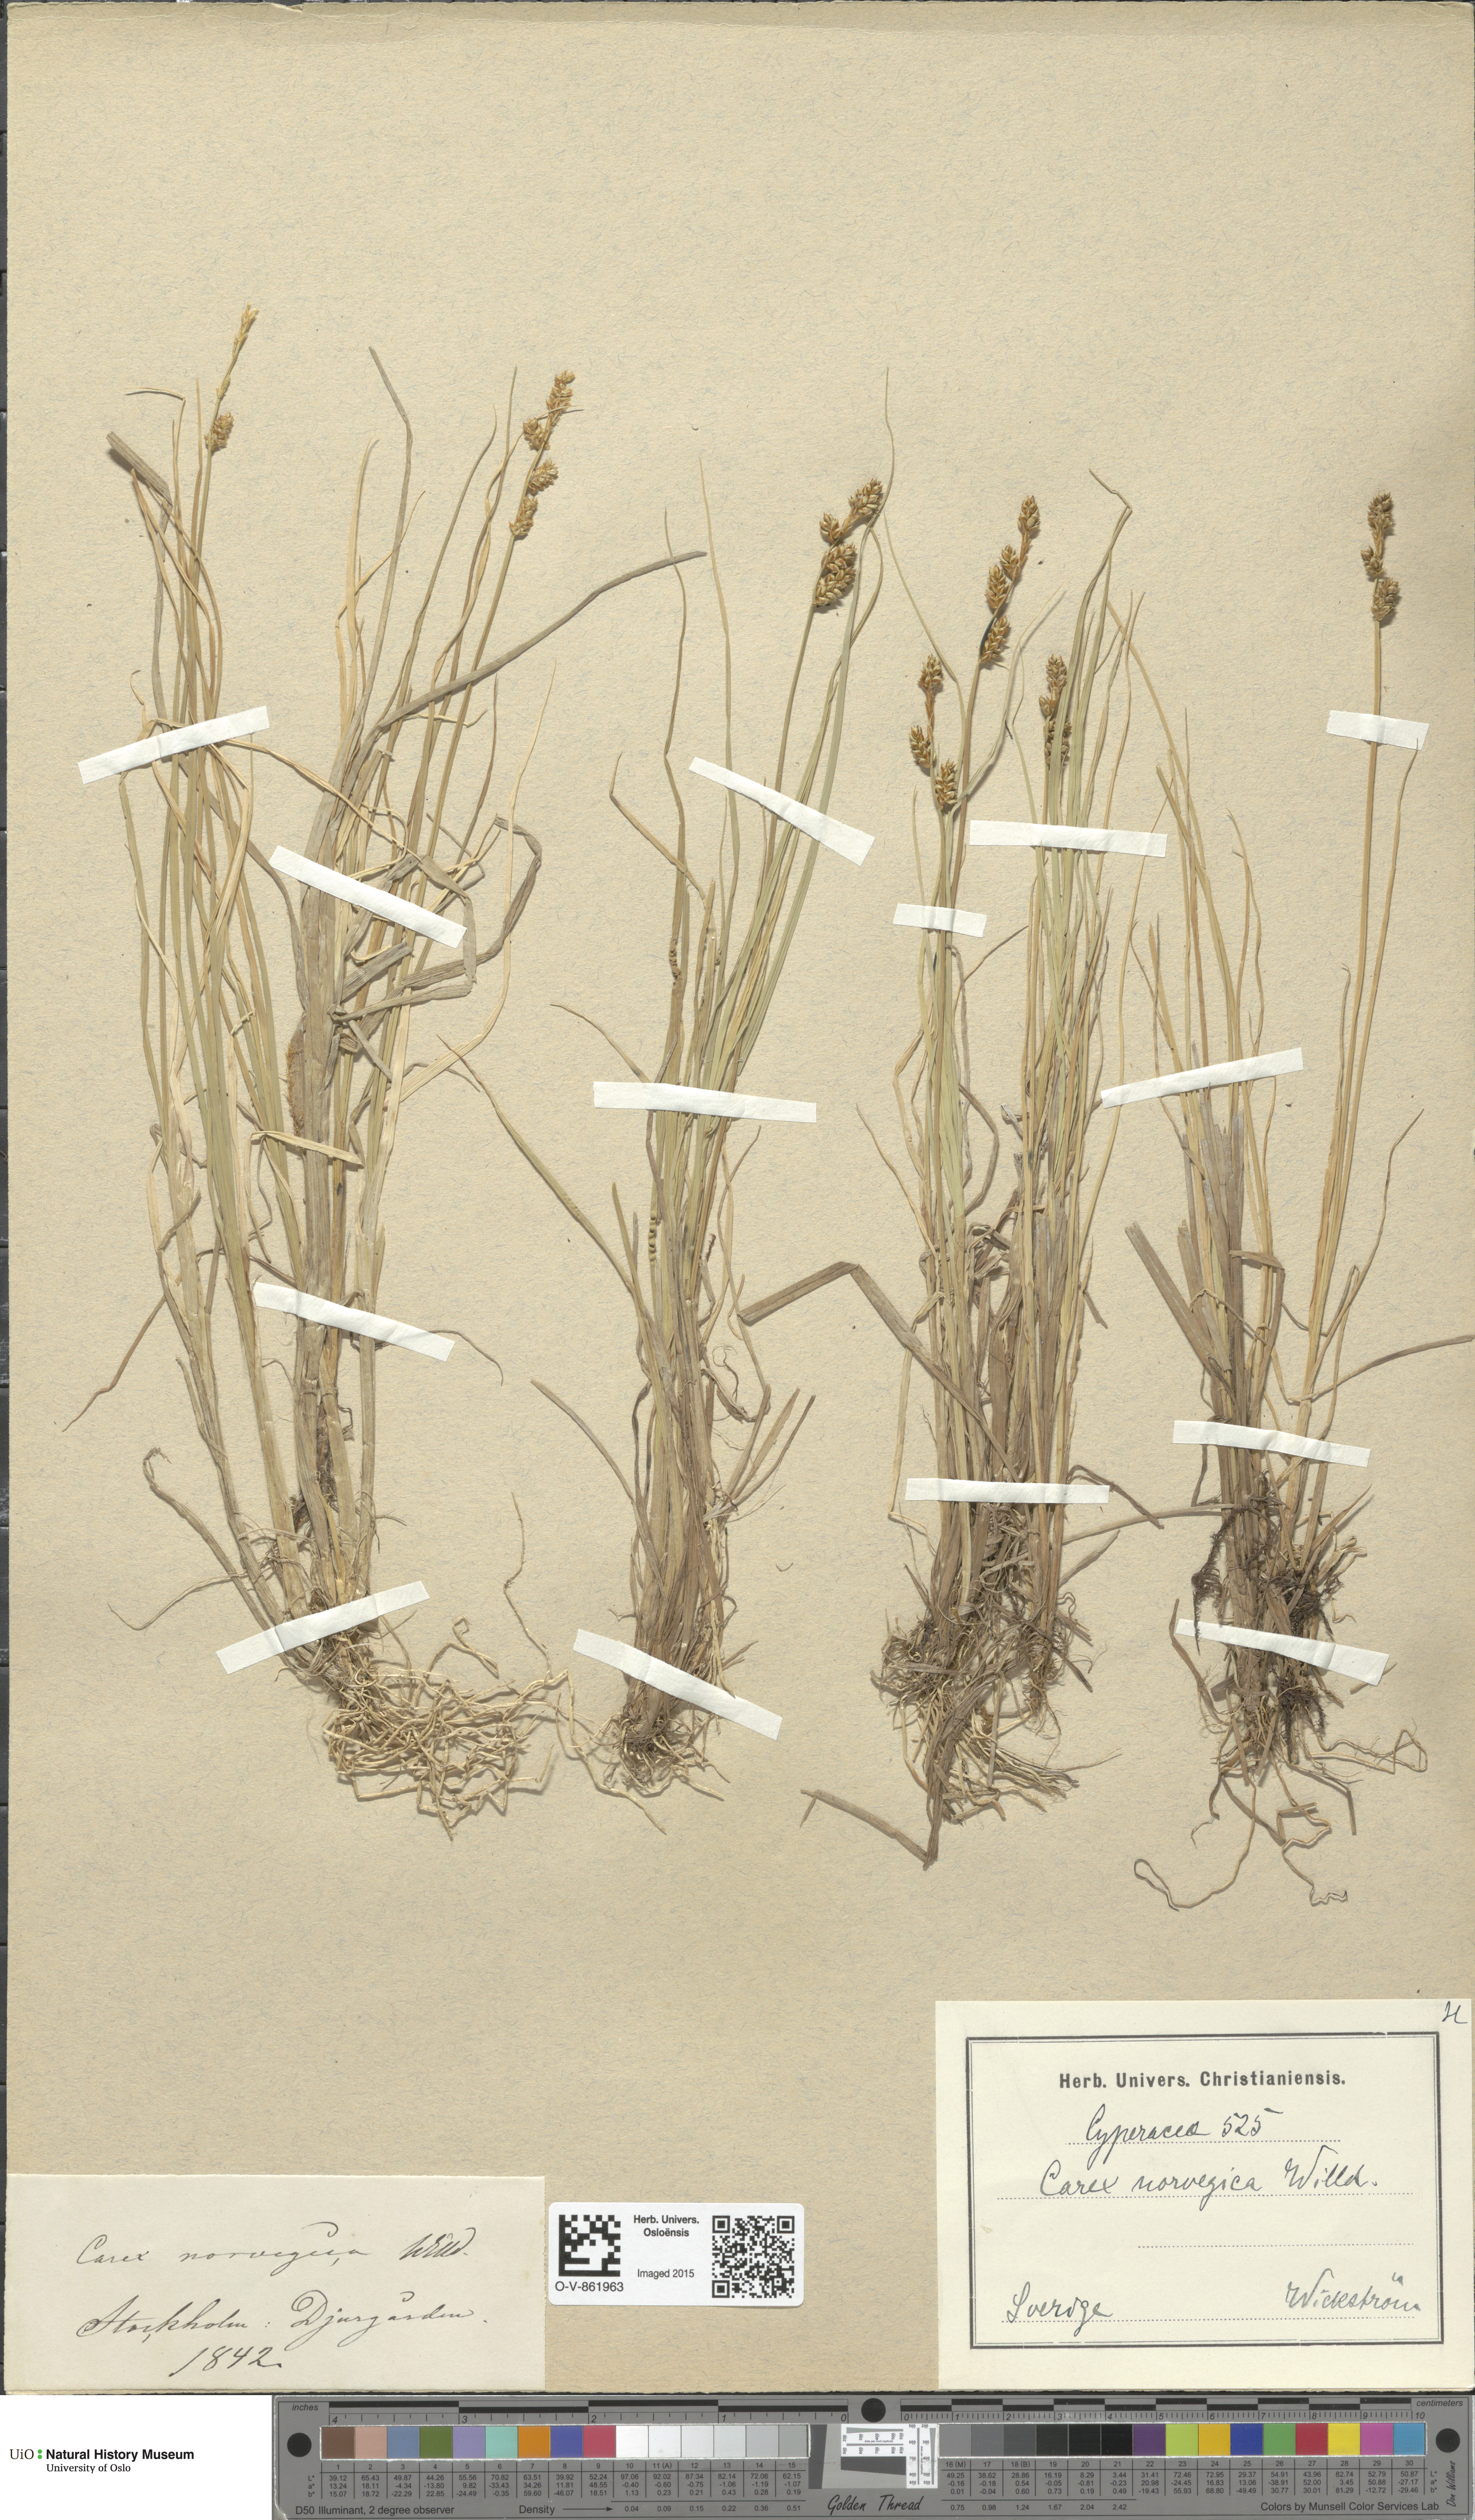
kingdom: Plantae
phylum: Tracheophyta
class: Liliopsida
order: Poales
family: Cyperaceae
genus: Carex
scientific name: Carex mackenziei
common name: Mackenzie's sedge
